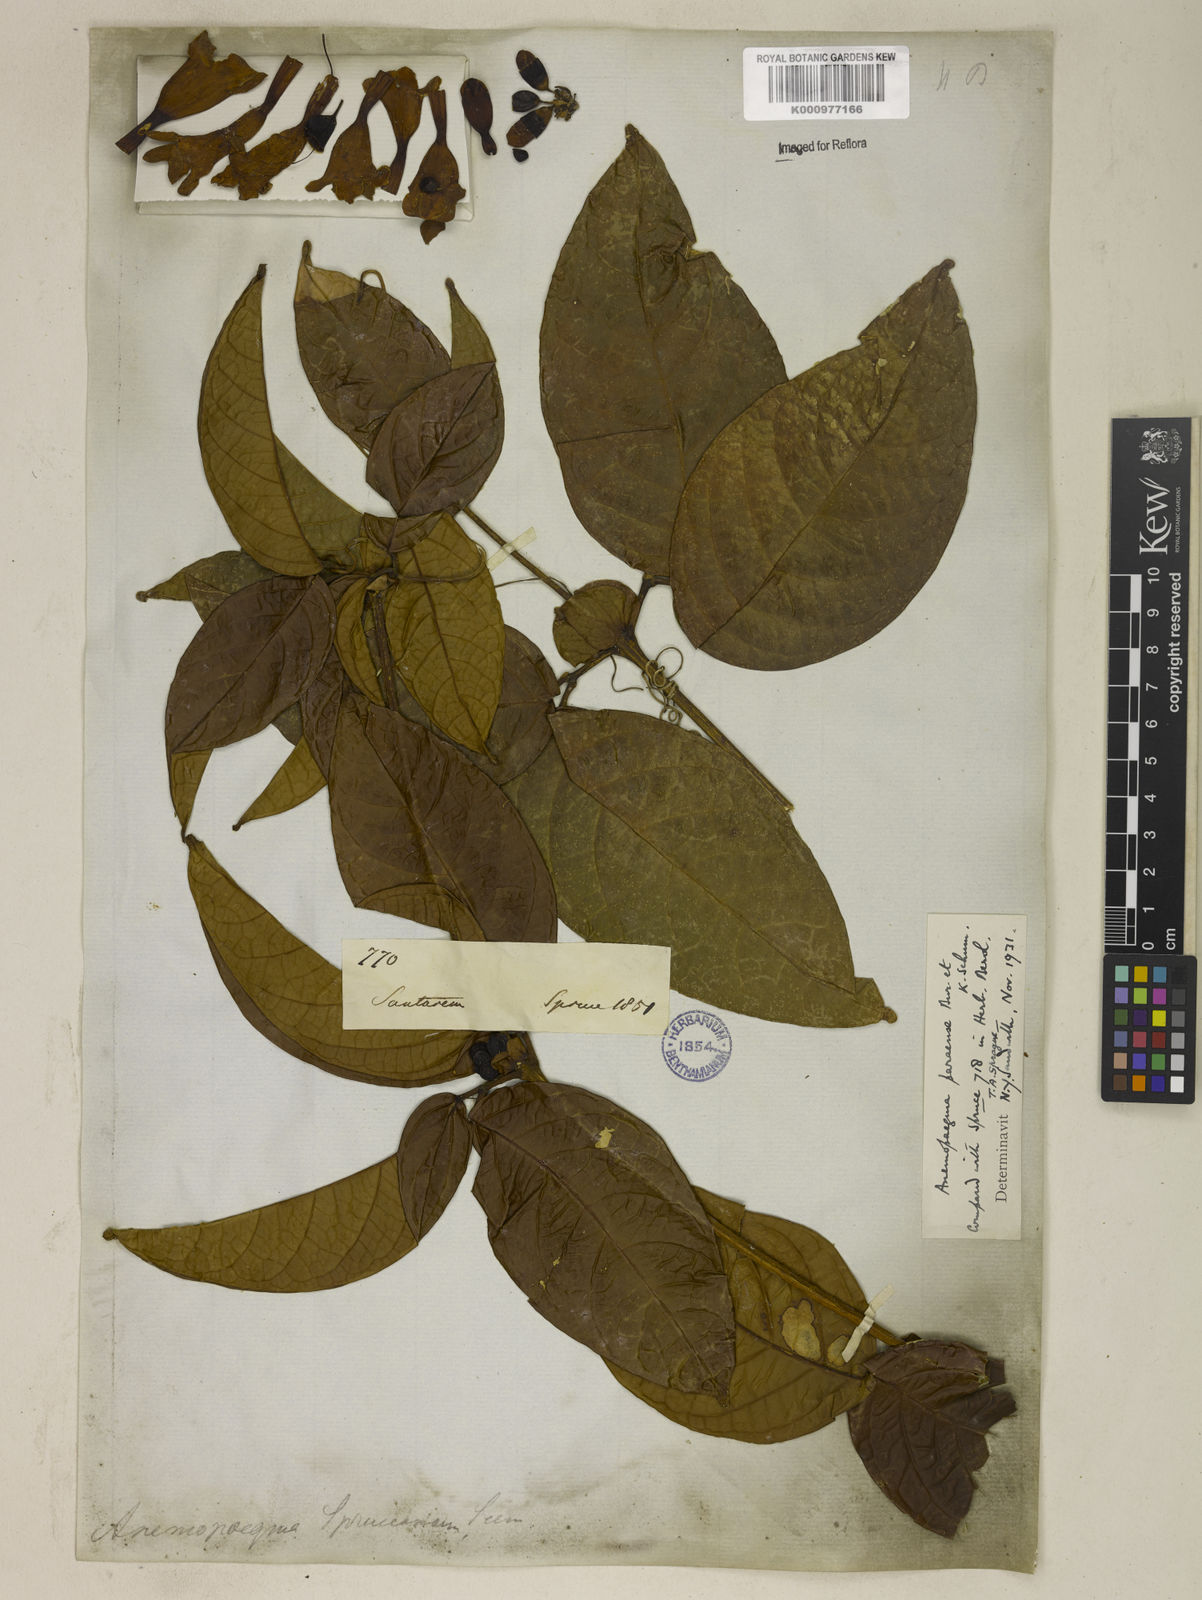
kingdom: Plantae
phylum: Tracheophyta
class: Magnoliopsida
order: Lamiales
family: Bignoniaceae
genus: Anemopaegma
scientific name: Anemopaegma
